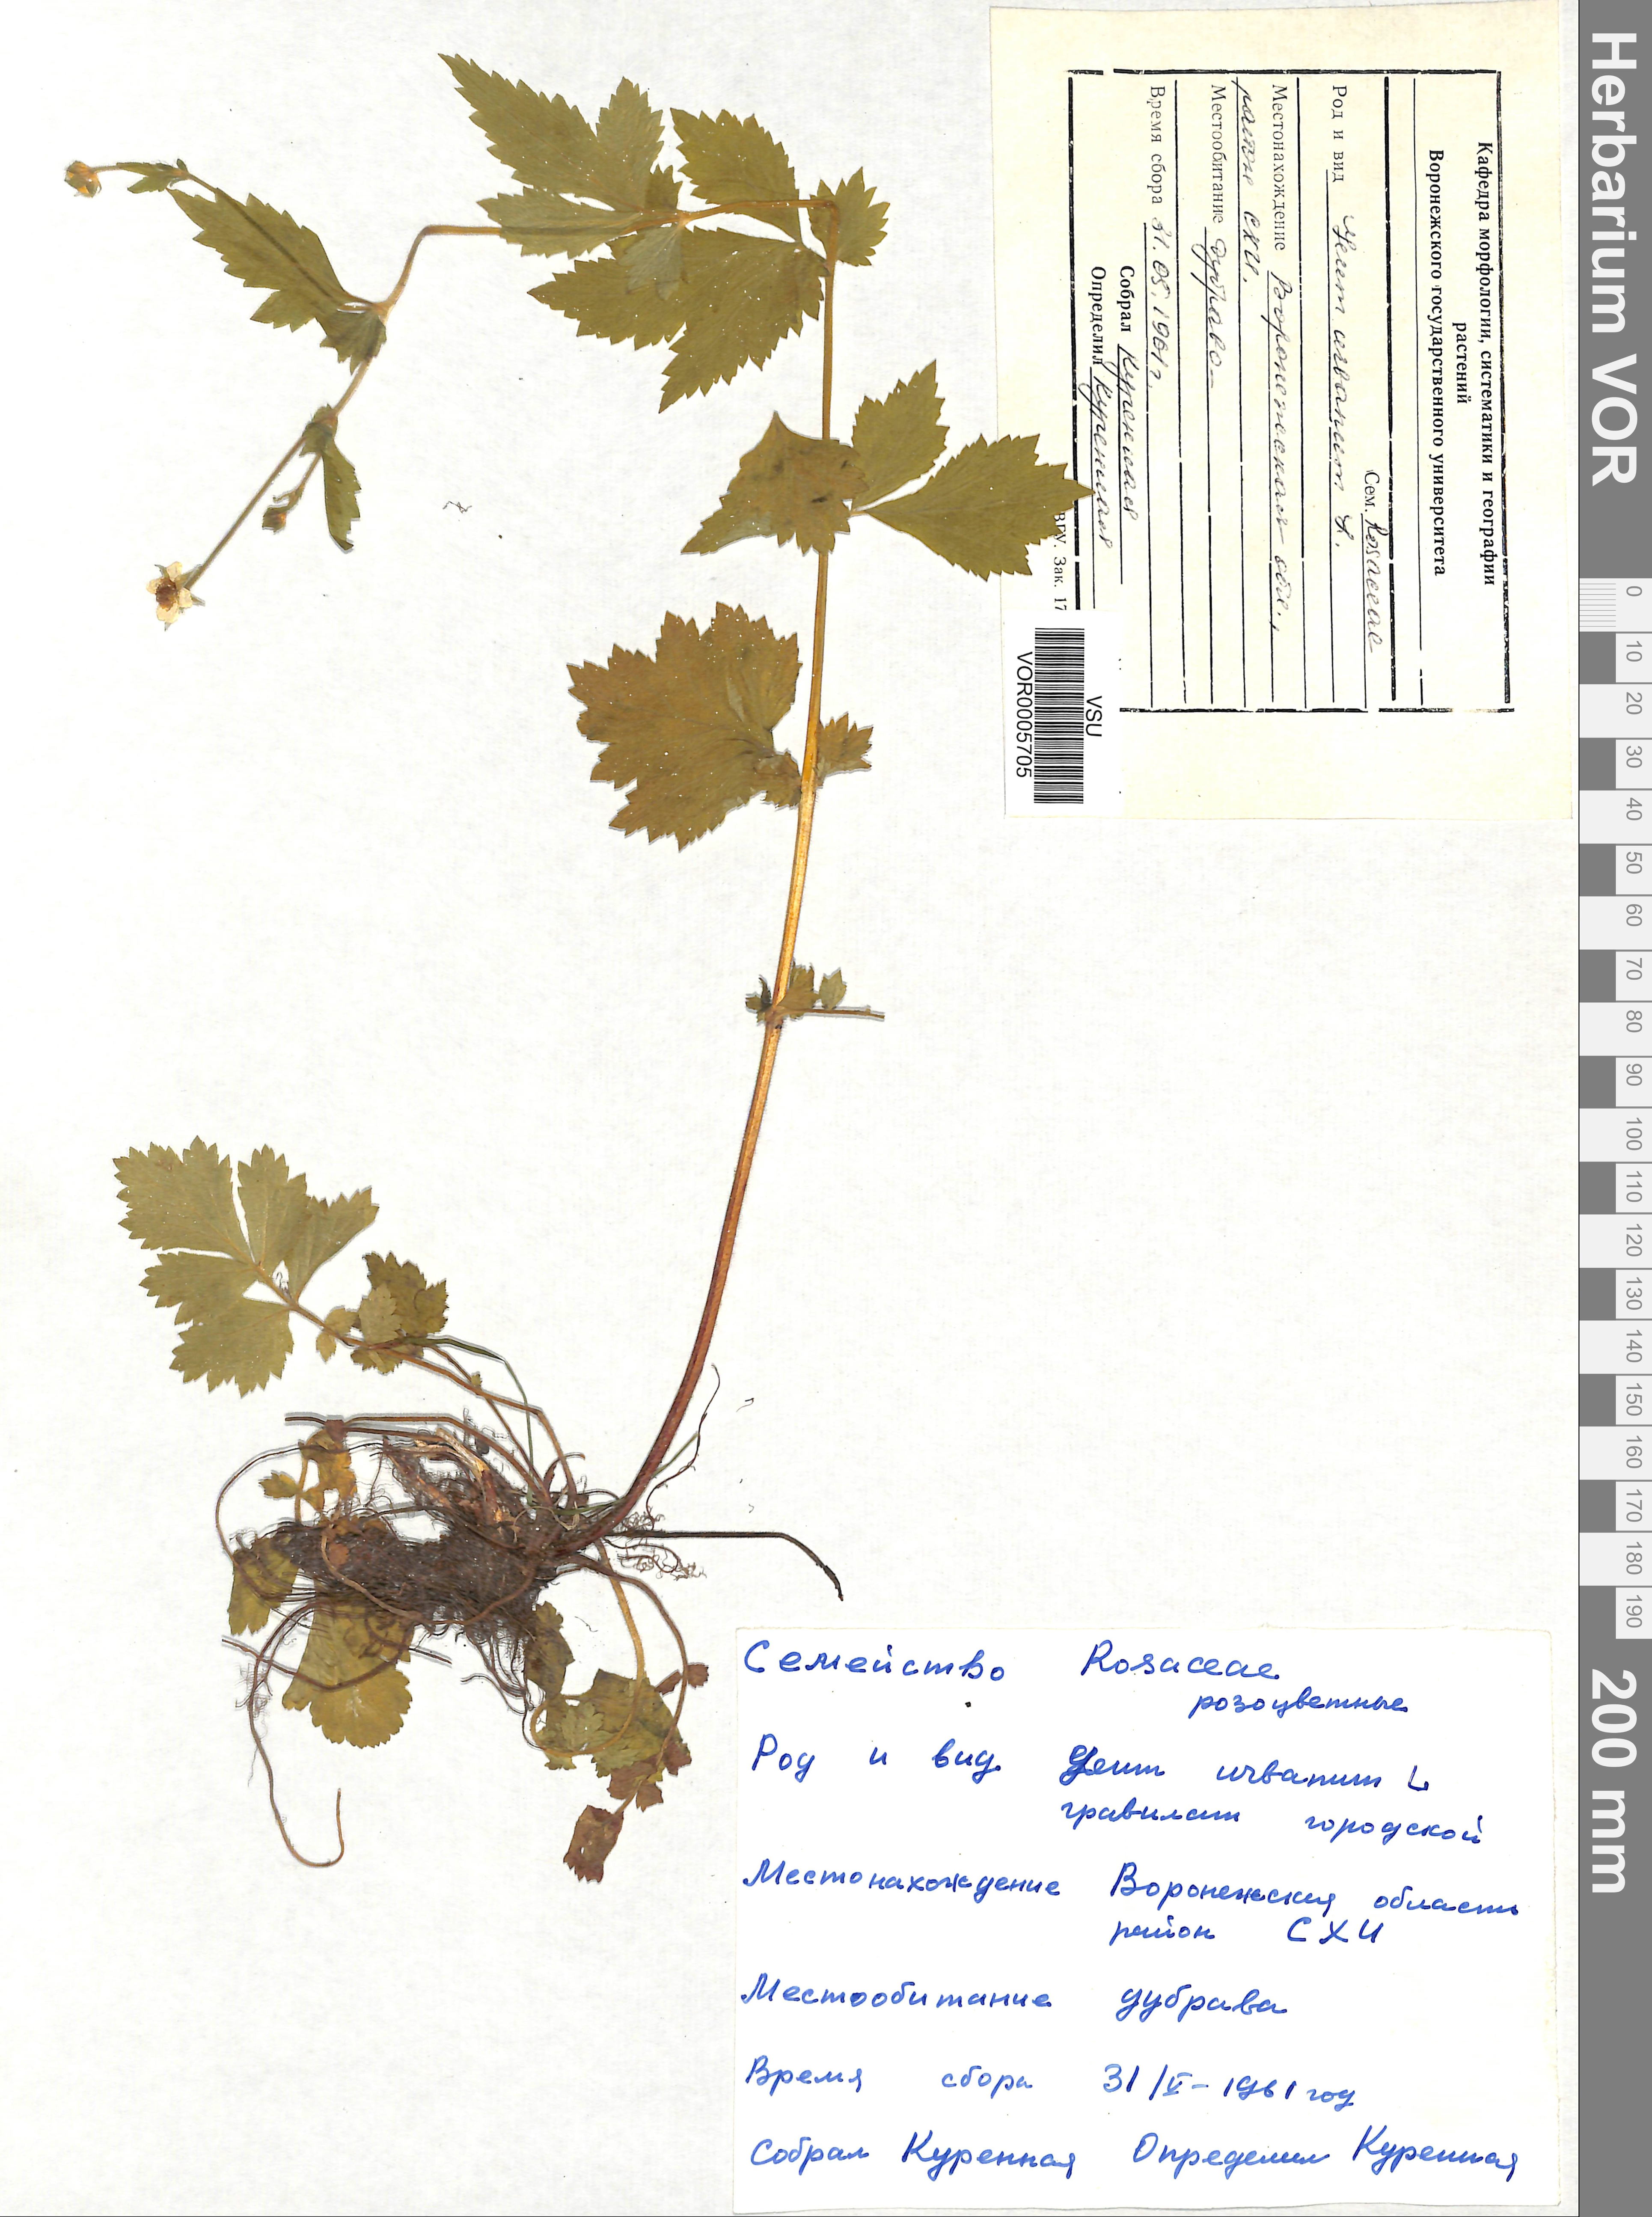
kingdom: Plantae
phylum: Tracheophyta
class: Magnoliopsida
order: Rosales
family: Rosaceae
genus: Geum
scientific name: Geum urbanum
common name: Wood avens
